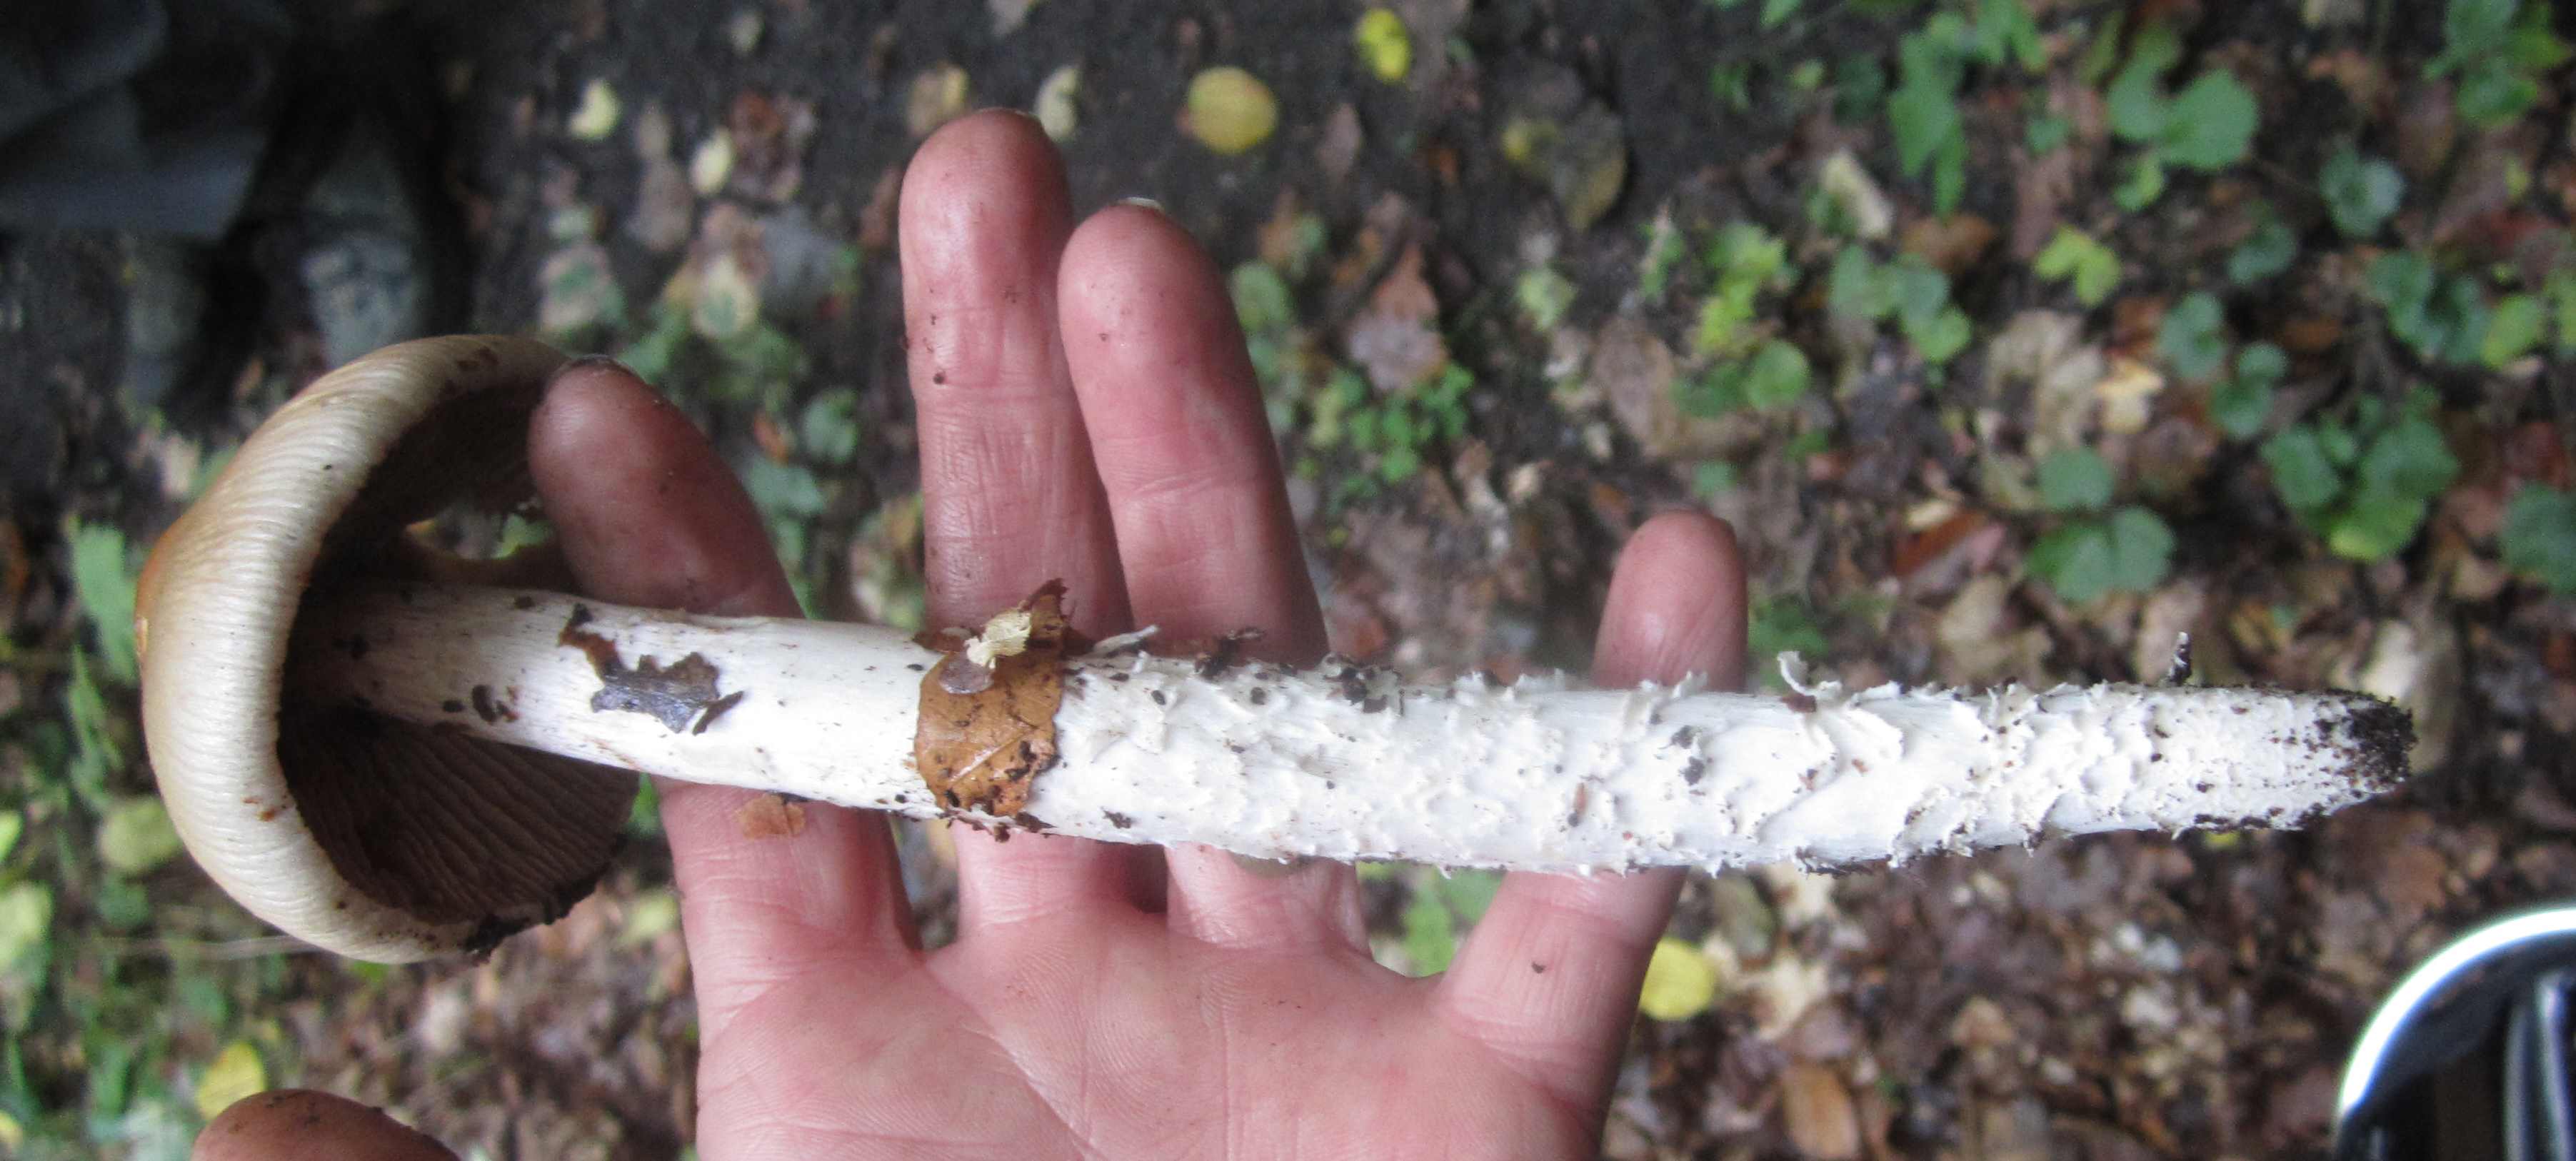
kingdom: Fungi
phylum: Basidiomycota
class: Agaricomycetes
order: Agaricales
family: Cortinariaceae
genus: Cortinarius
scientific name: Cortinarius elatior
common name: høj slørhat
